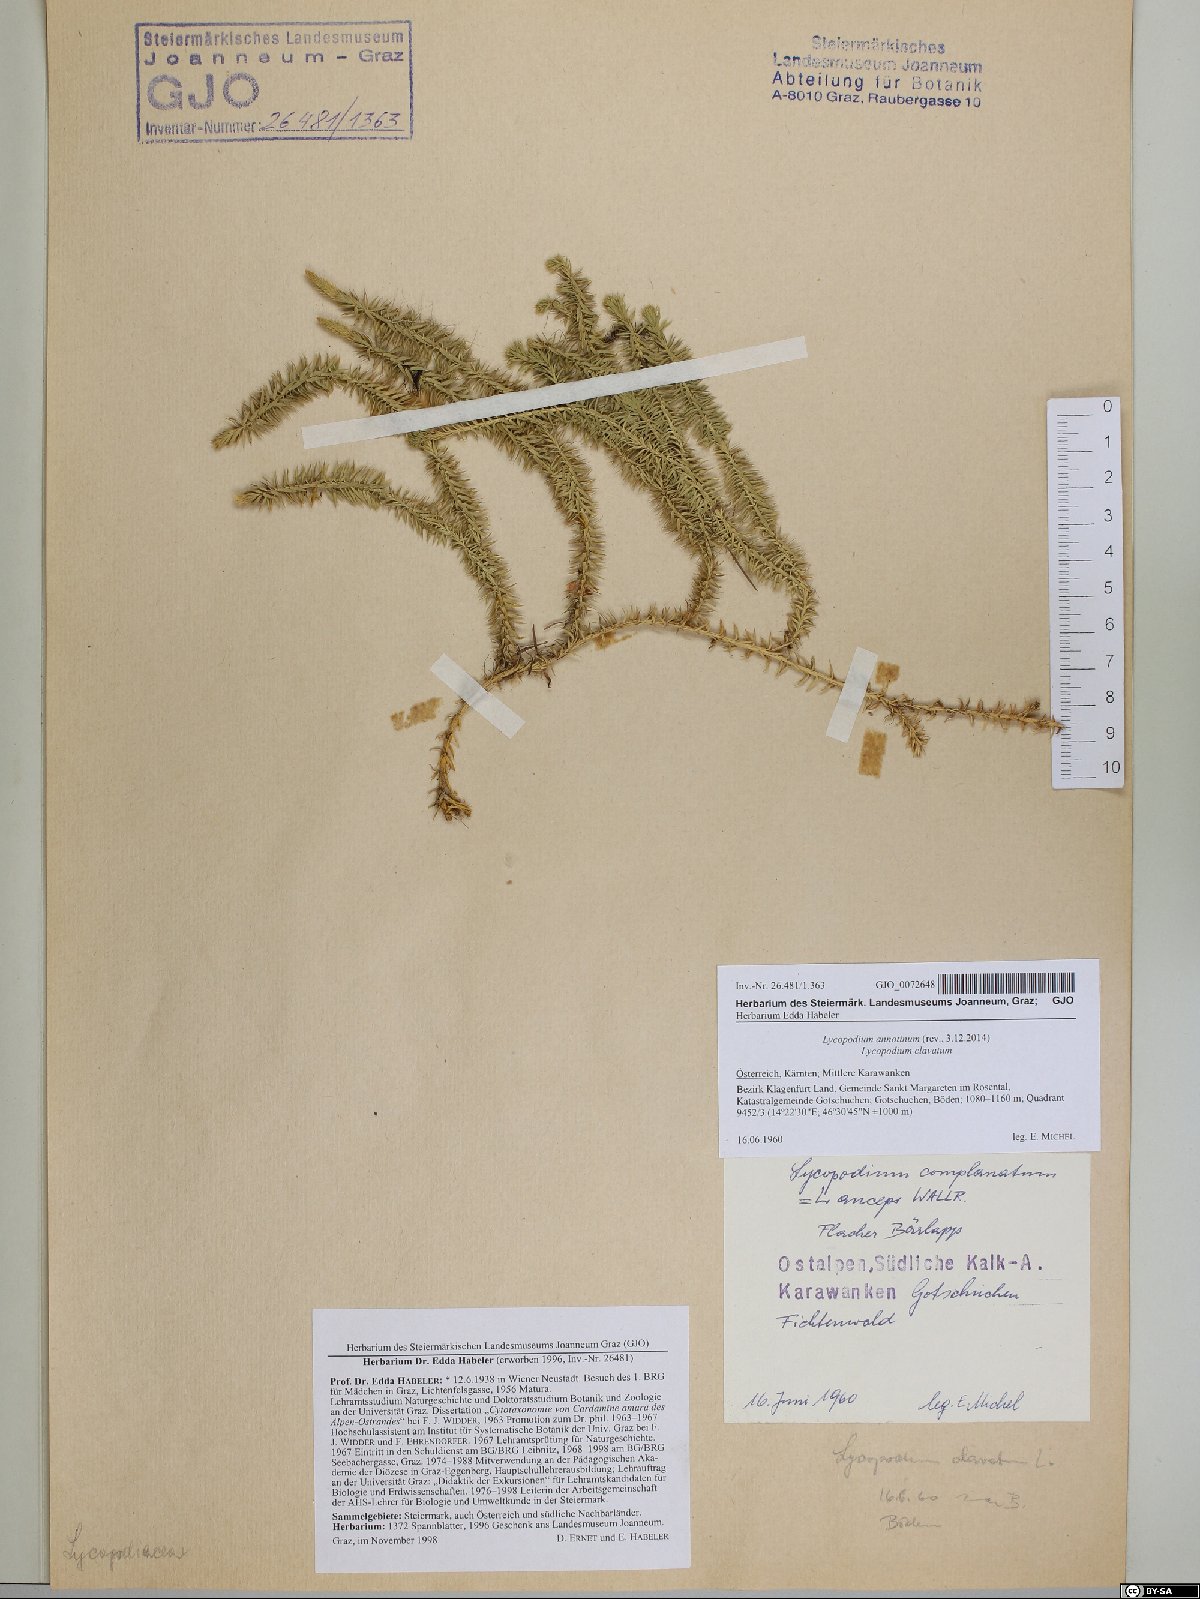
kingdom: Plantae
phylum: Tracheophyta
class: Lycopodiopsida
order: Lycopodiales
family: Lycopodiaceae
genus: Spinulum
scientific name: Spinulum annotinum
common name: Interrupted club-moss
